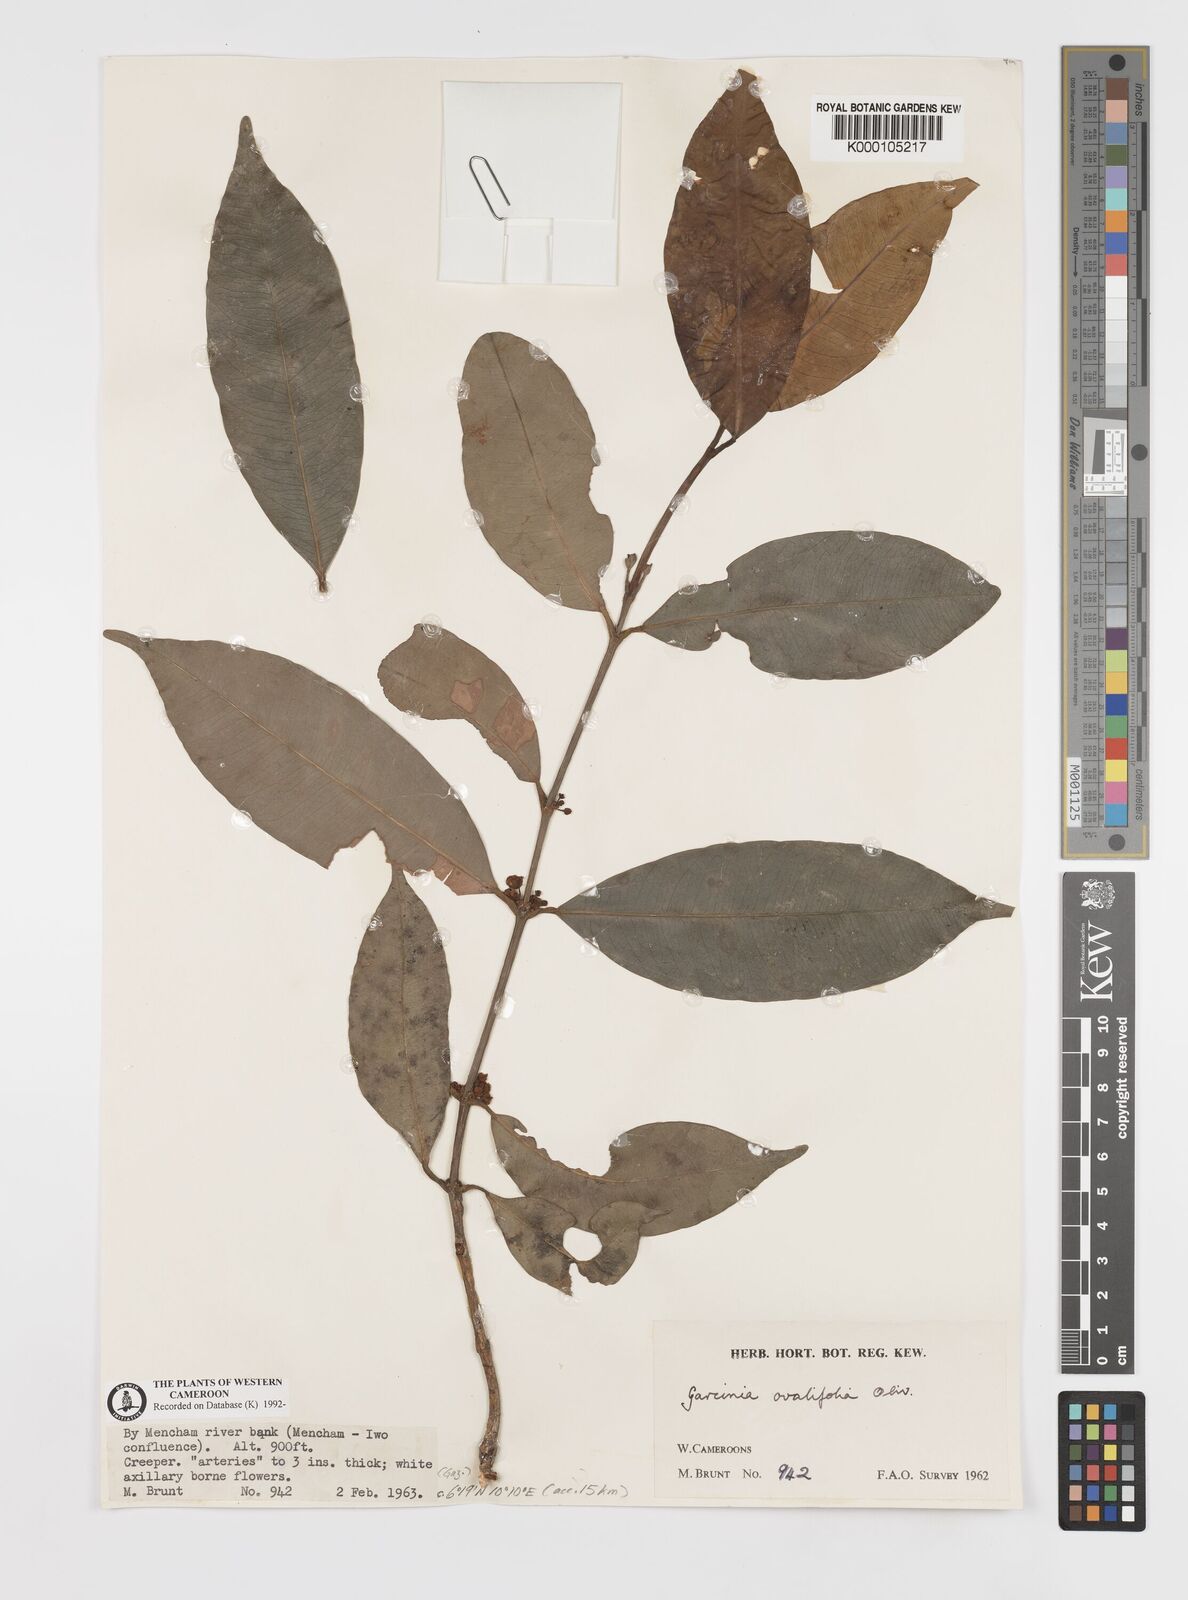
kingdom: Plantae
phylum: Tracheophyta
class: Magnoliopsida
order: Malpighiales
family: Clusiaceae
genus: Garcinia
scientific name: Garcinia ovalifolia
